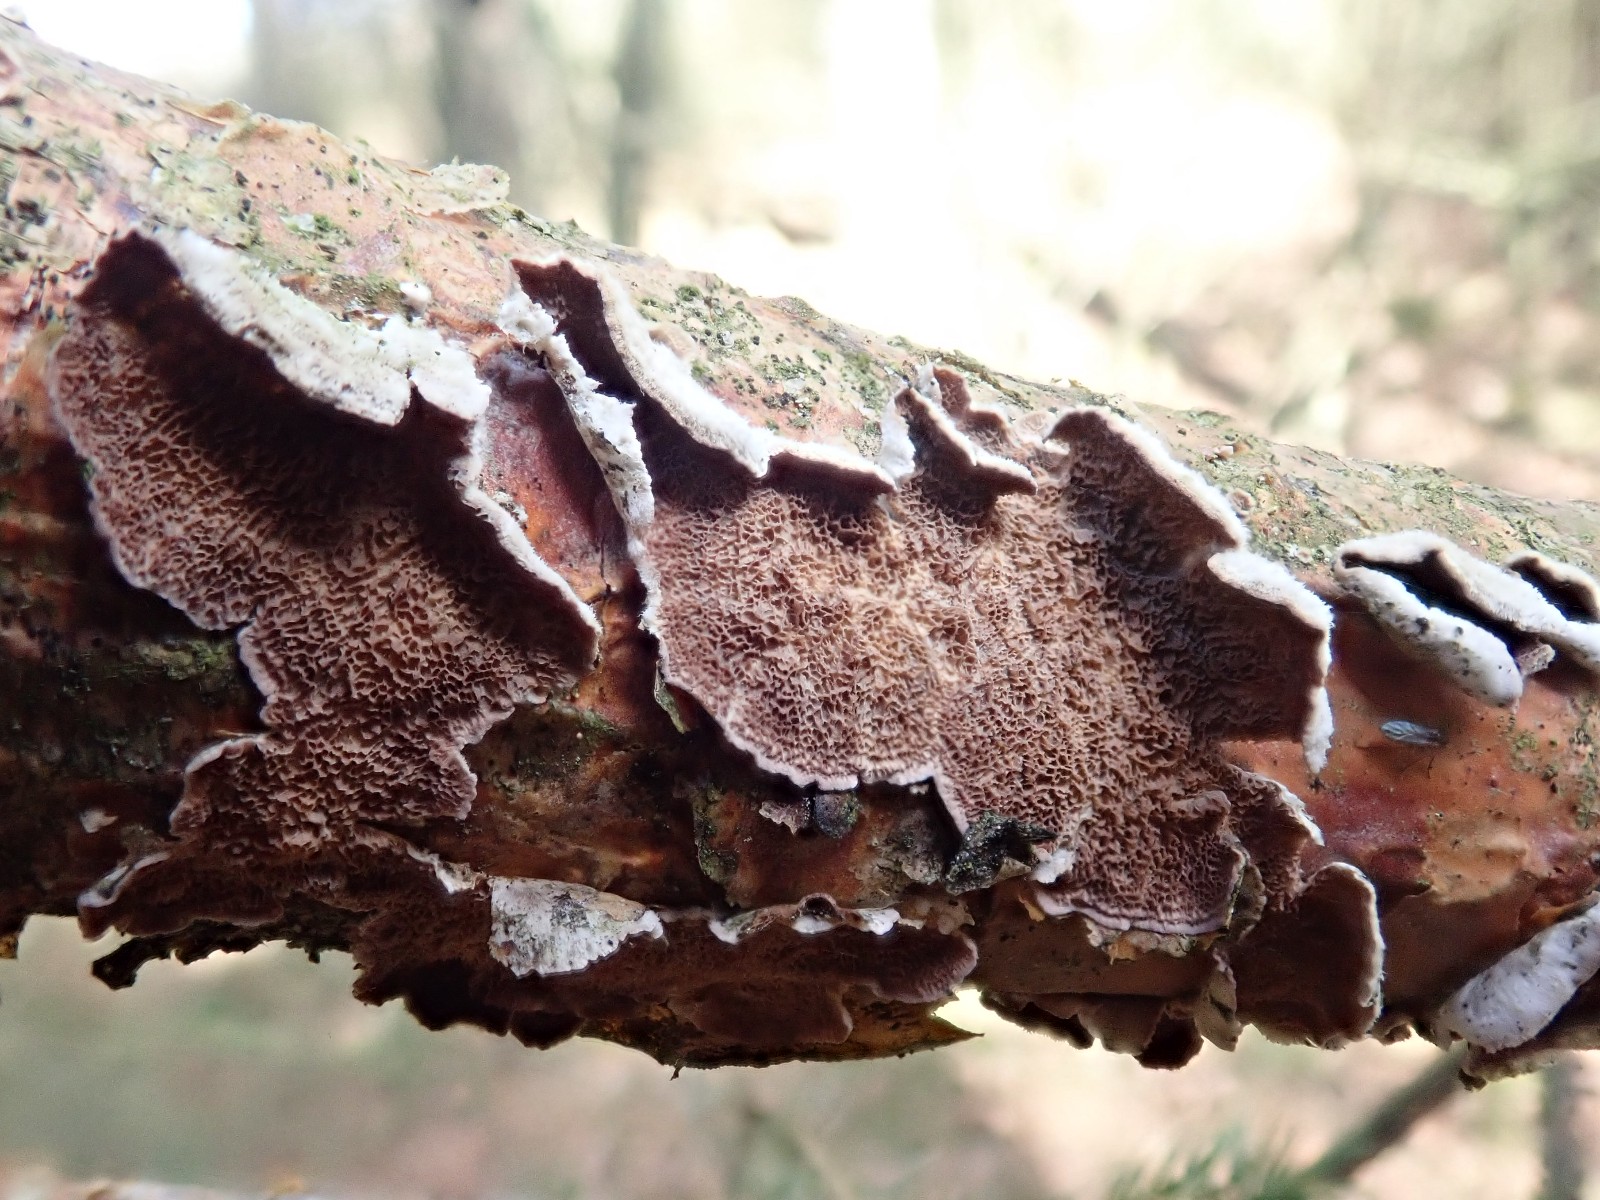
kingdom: Fungi
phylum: Basidiomycota
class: Agaricomycetes
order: Hymenochaetales
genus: Trichaptum
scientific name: Trichaptum abietinum
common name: almindelig violporesvamp
